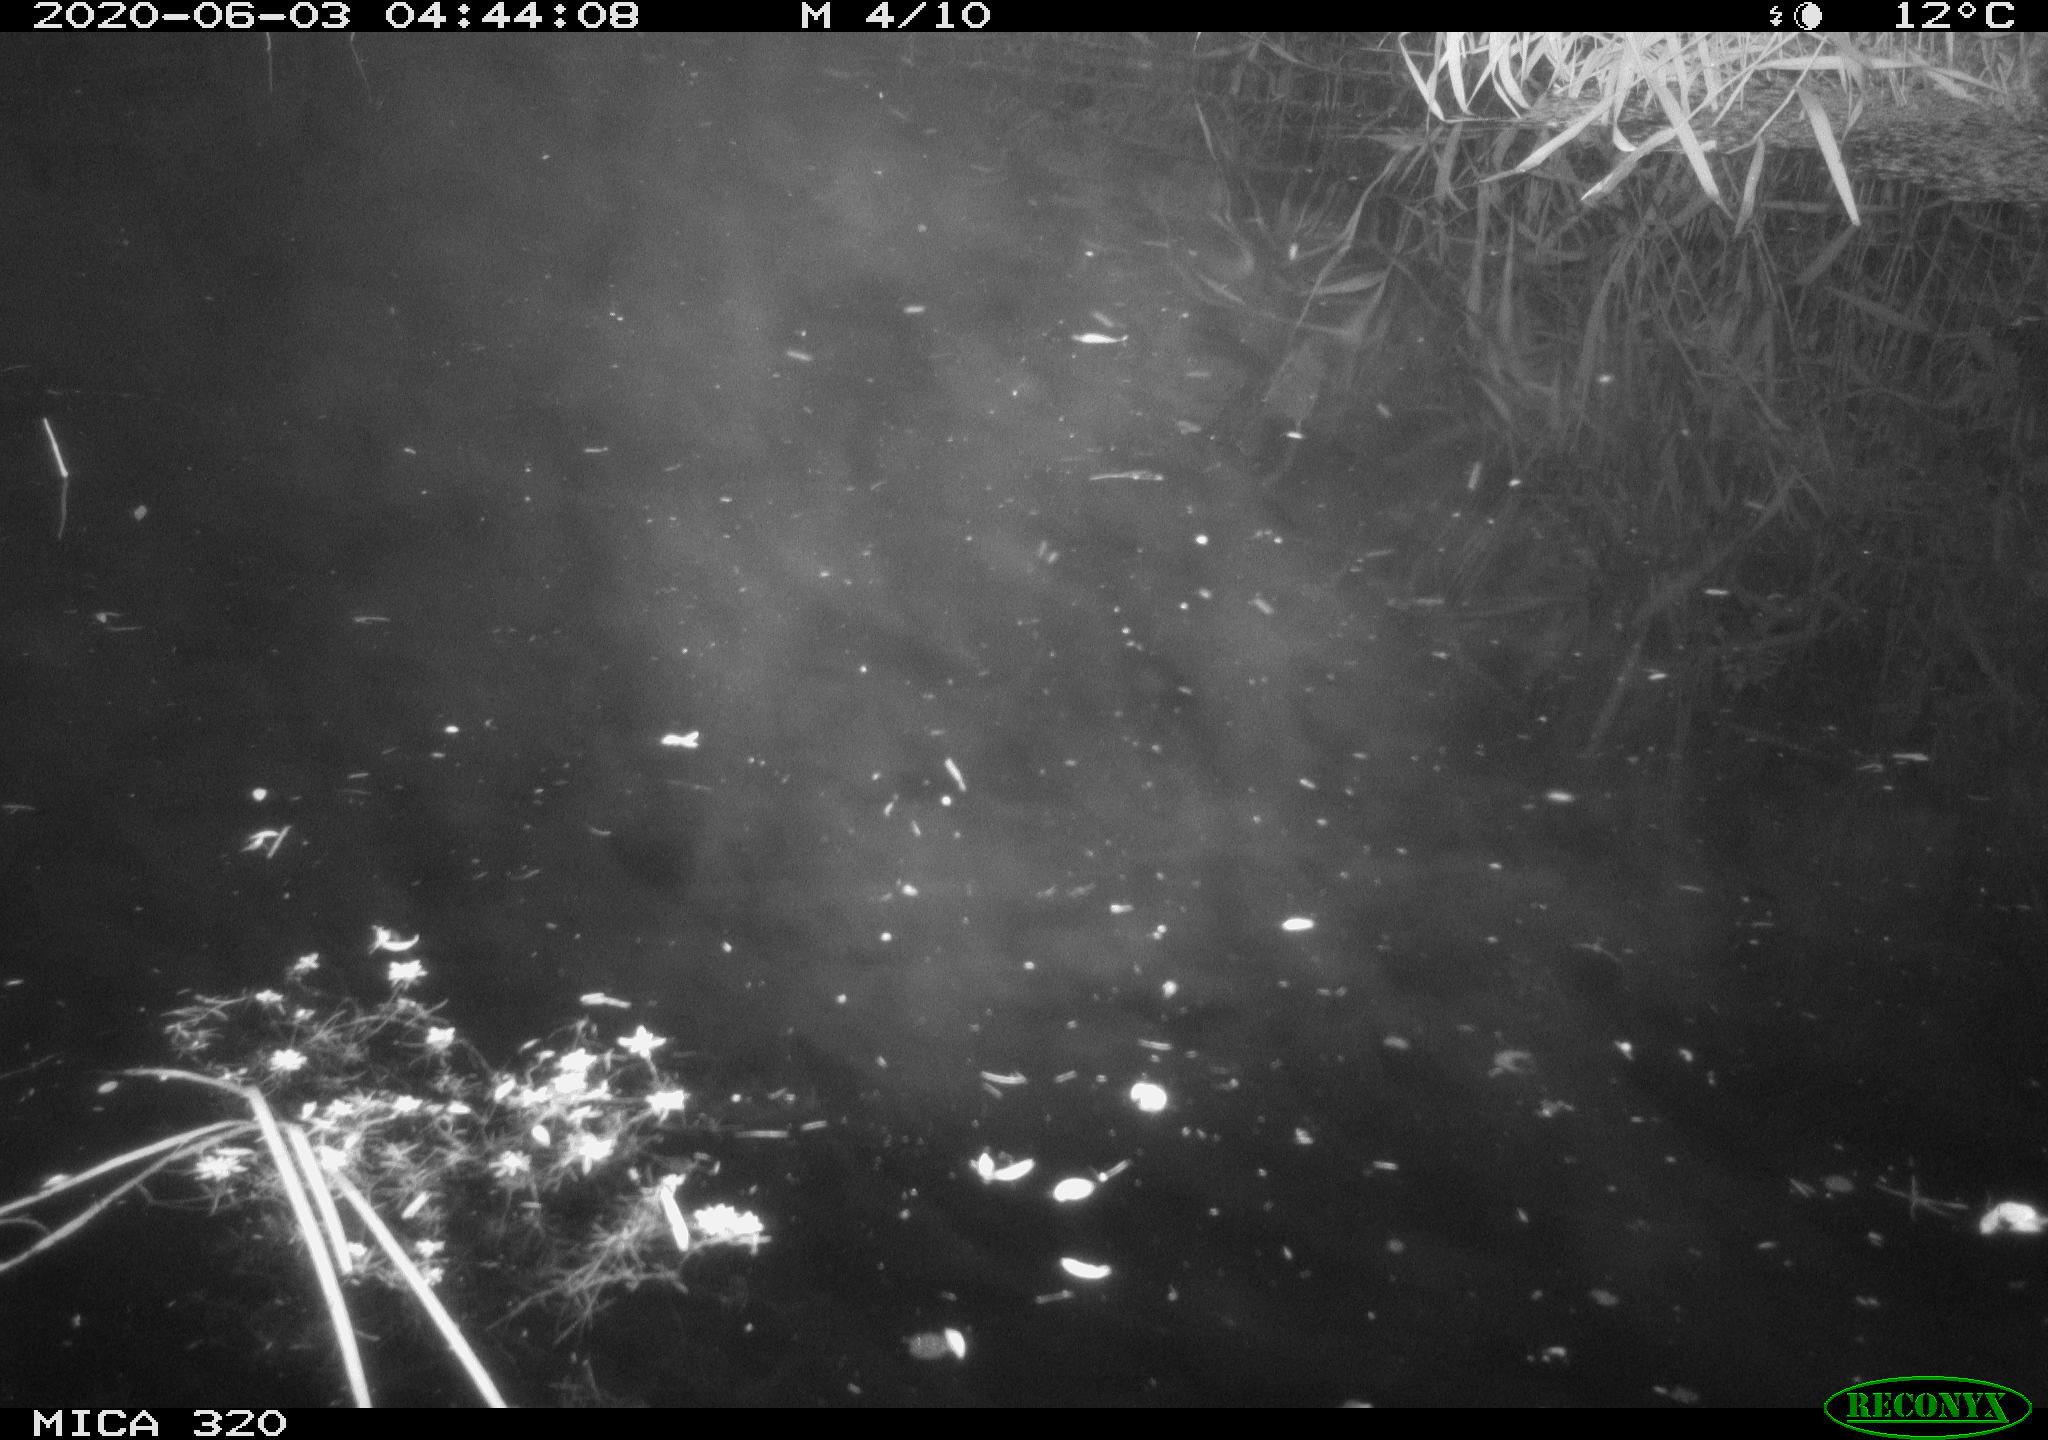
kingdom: Animalia
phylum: Chordata
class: Aves
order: Anseriformes
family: Anatidae
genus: Anas
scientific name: Anas platyrhynchos
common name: Mallard
